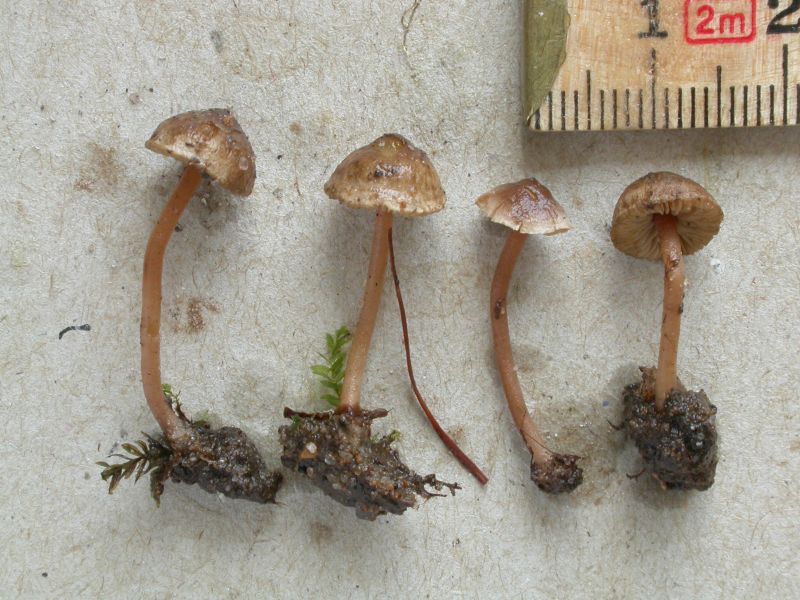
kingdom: Fungi
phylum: Basidiomycota
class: Agaricomycetes
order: Agaricales
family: Inocybaceae
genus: Inocybe
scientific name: Inocybe petiginosa
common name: liden trævlhat
